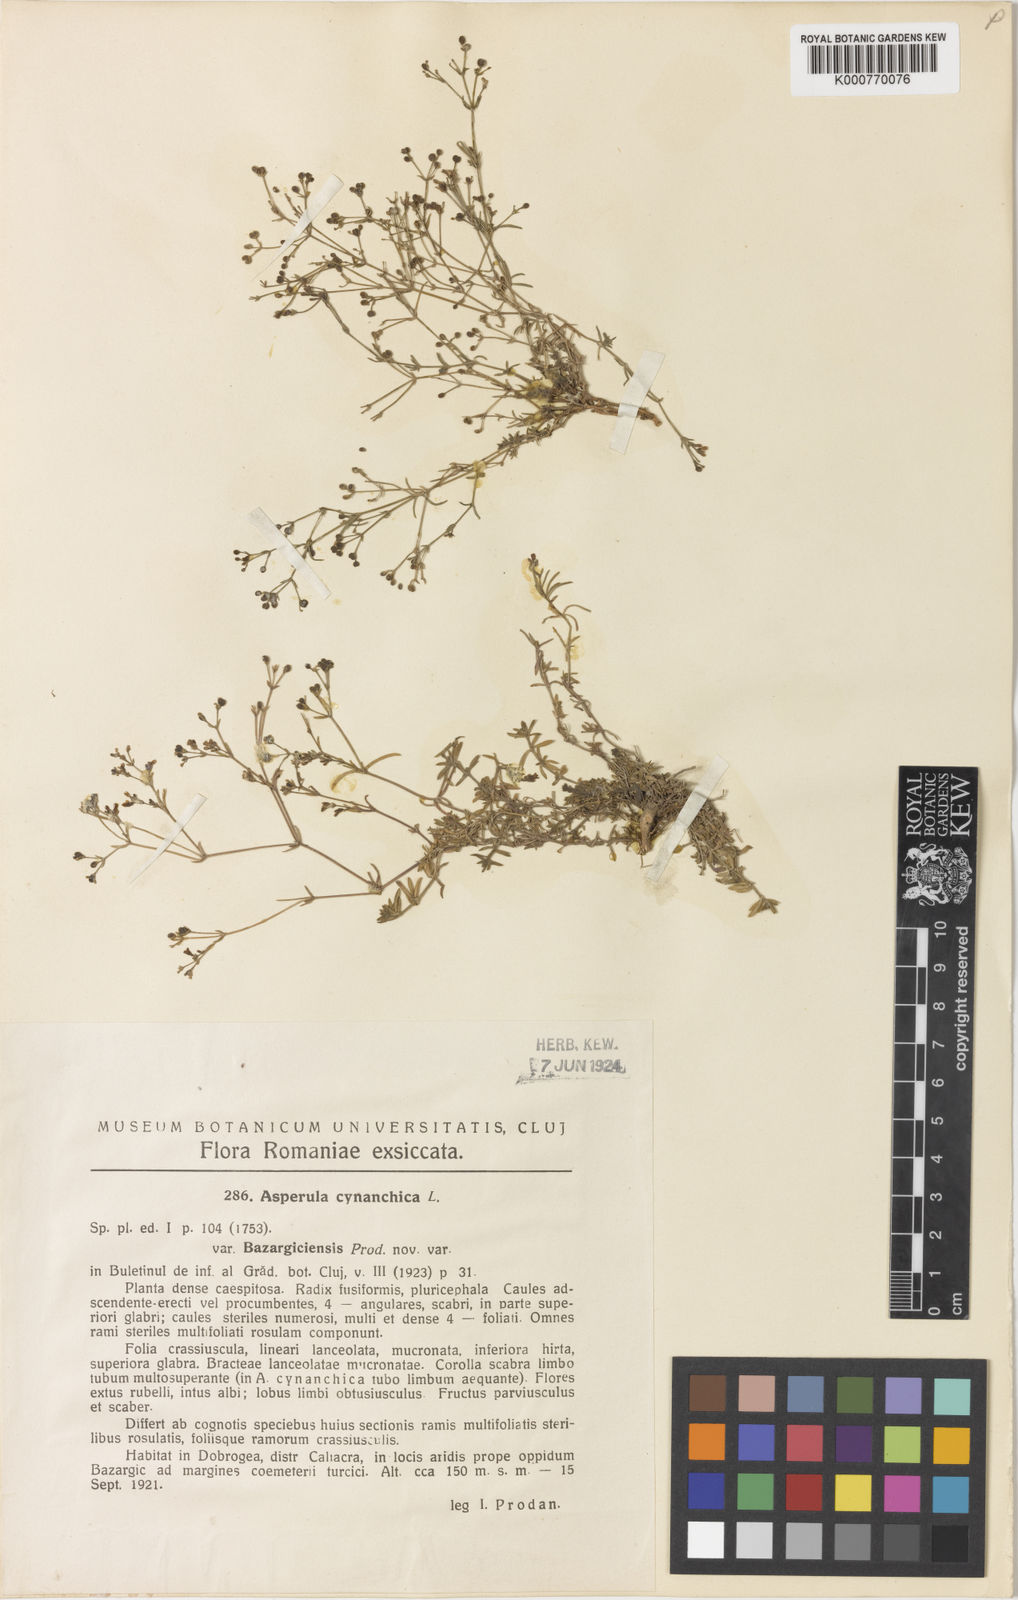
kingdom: Plantae
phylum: Tracheophyta
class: Magnoliopsida
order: Gentianales
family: Rubiaceae
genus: Cynanchica
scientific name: Cynanchica tenella
